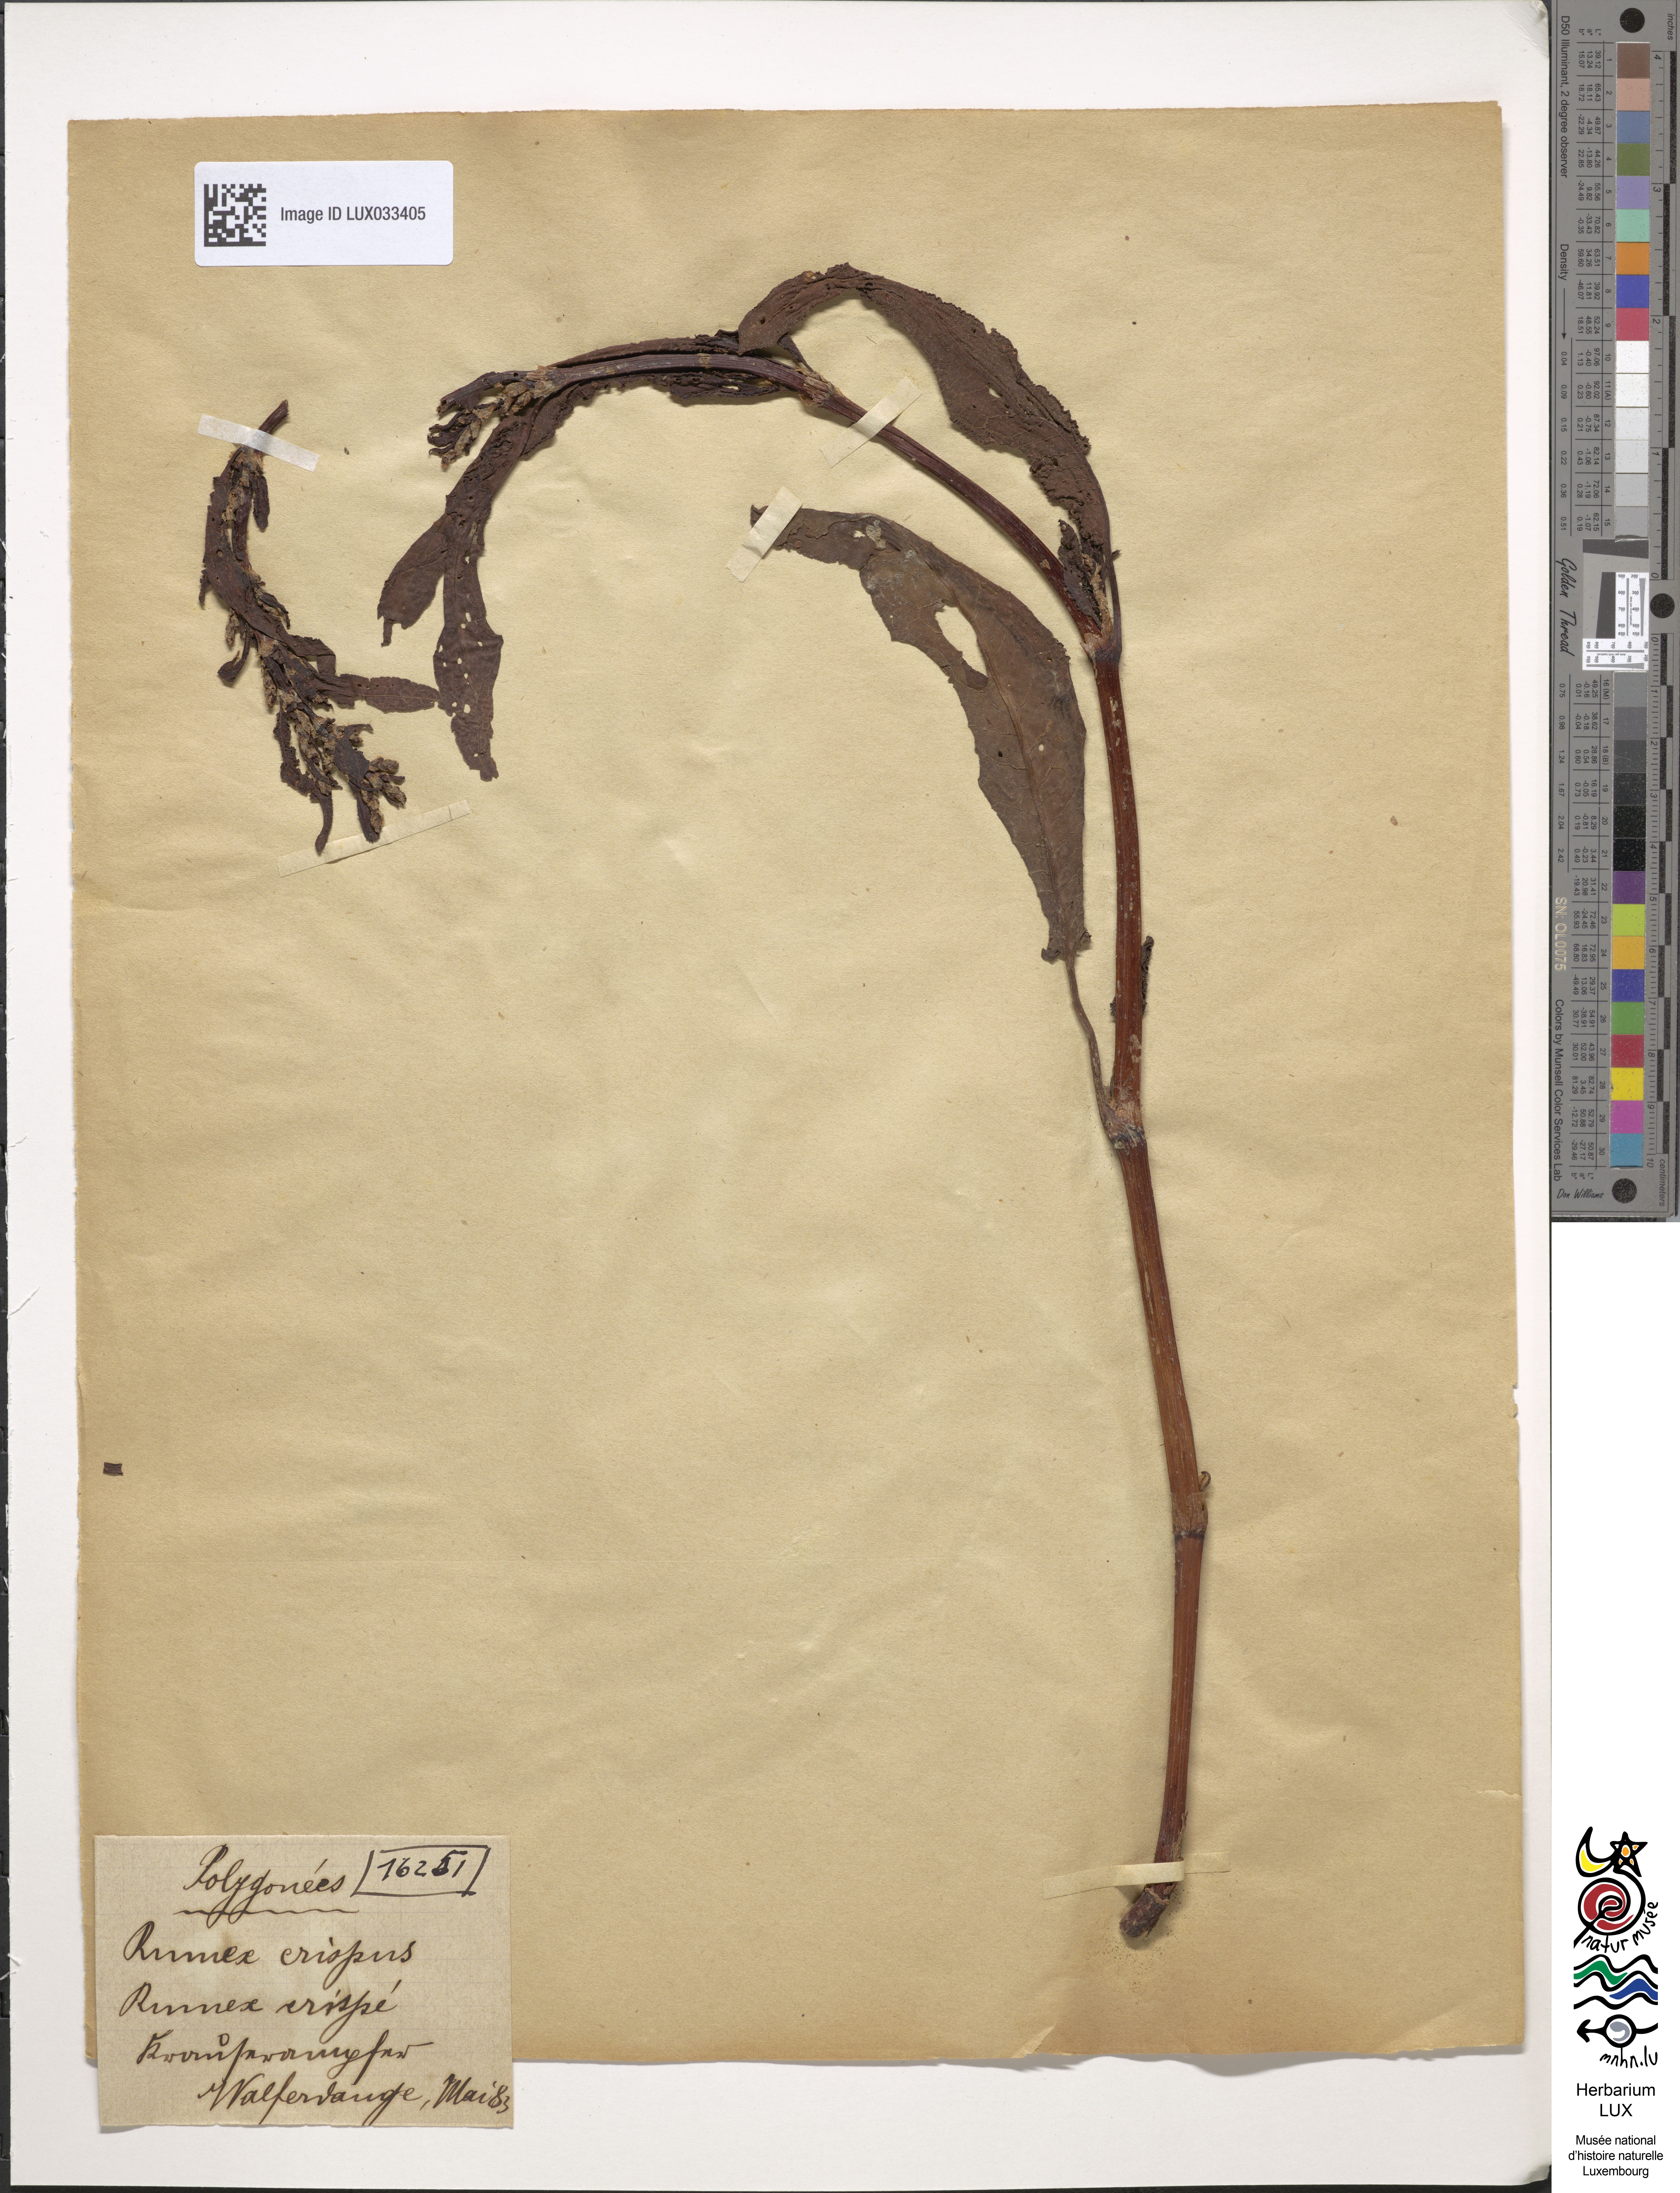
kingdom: Plantae
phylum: Tracheophyta
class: Magnoliopsida
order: Caryophyllales
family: Polygonaceae
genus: Rumex
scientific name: Rumex crispus
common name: Curled dock
